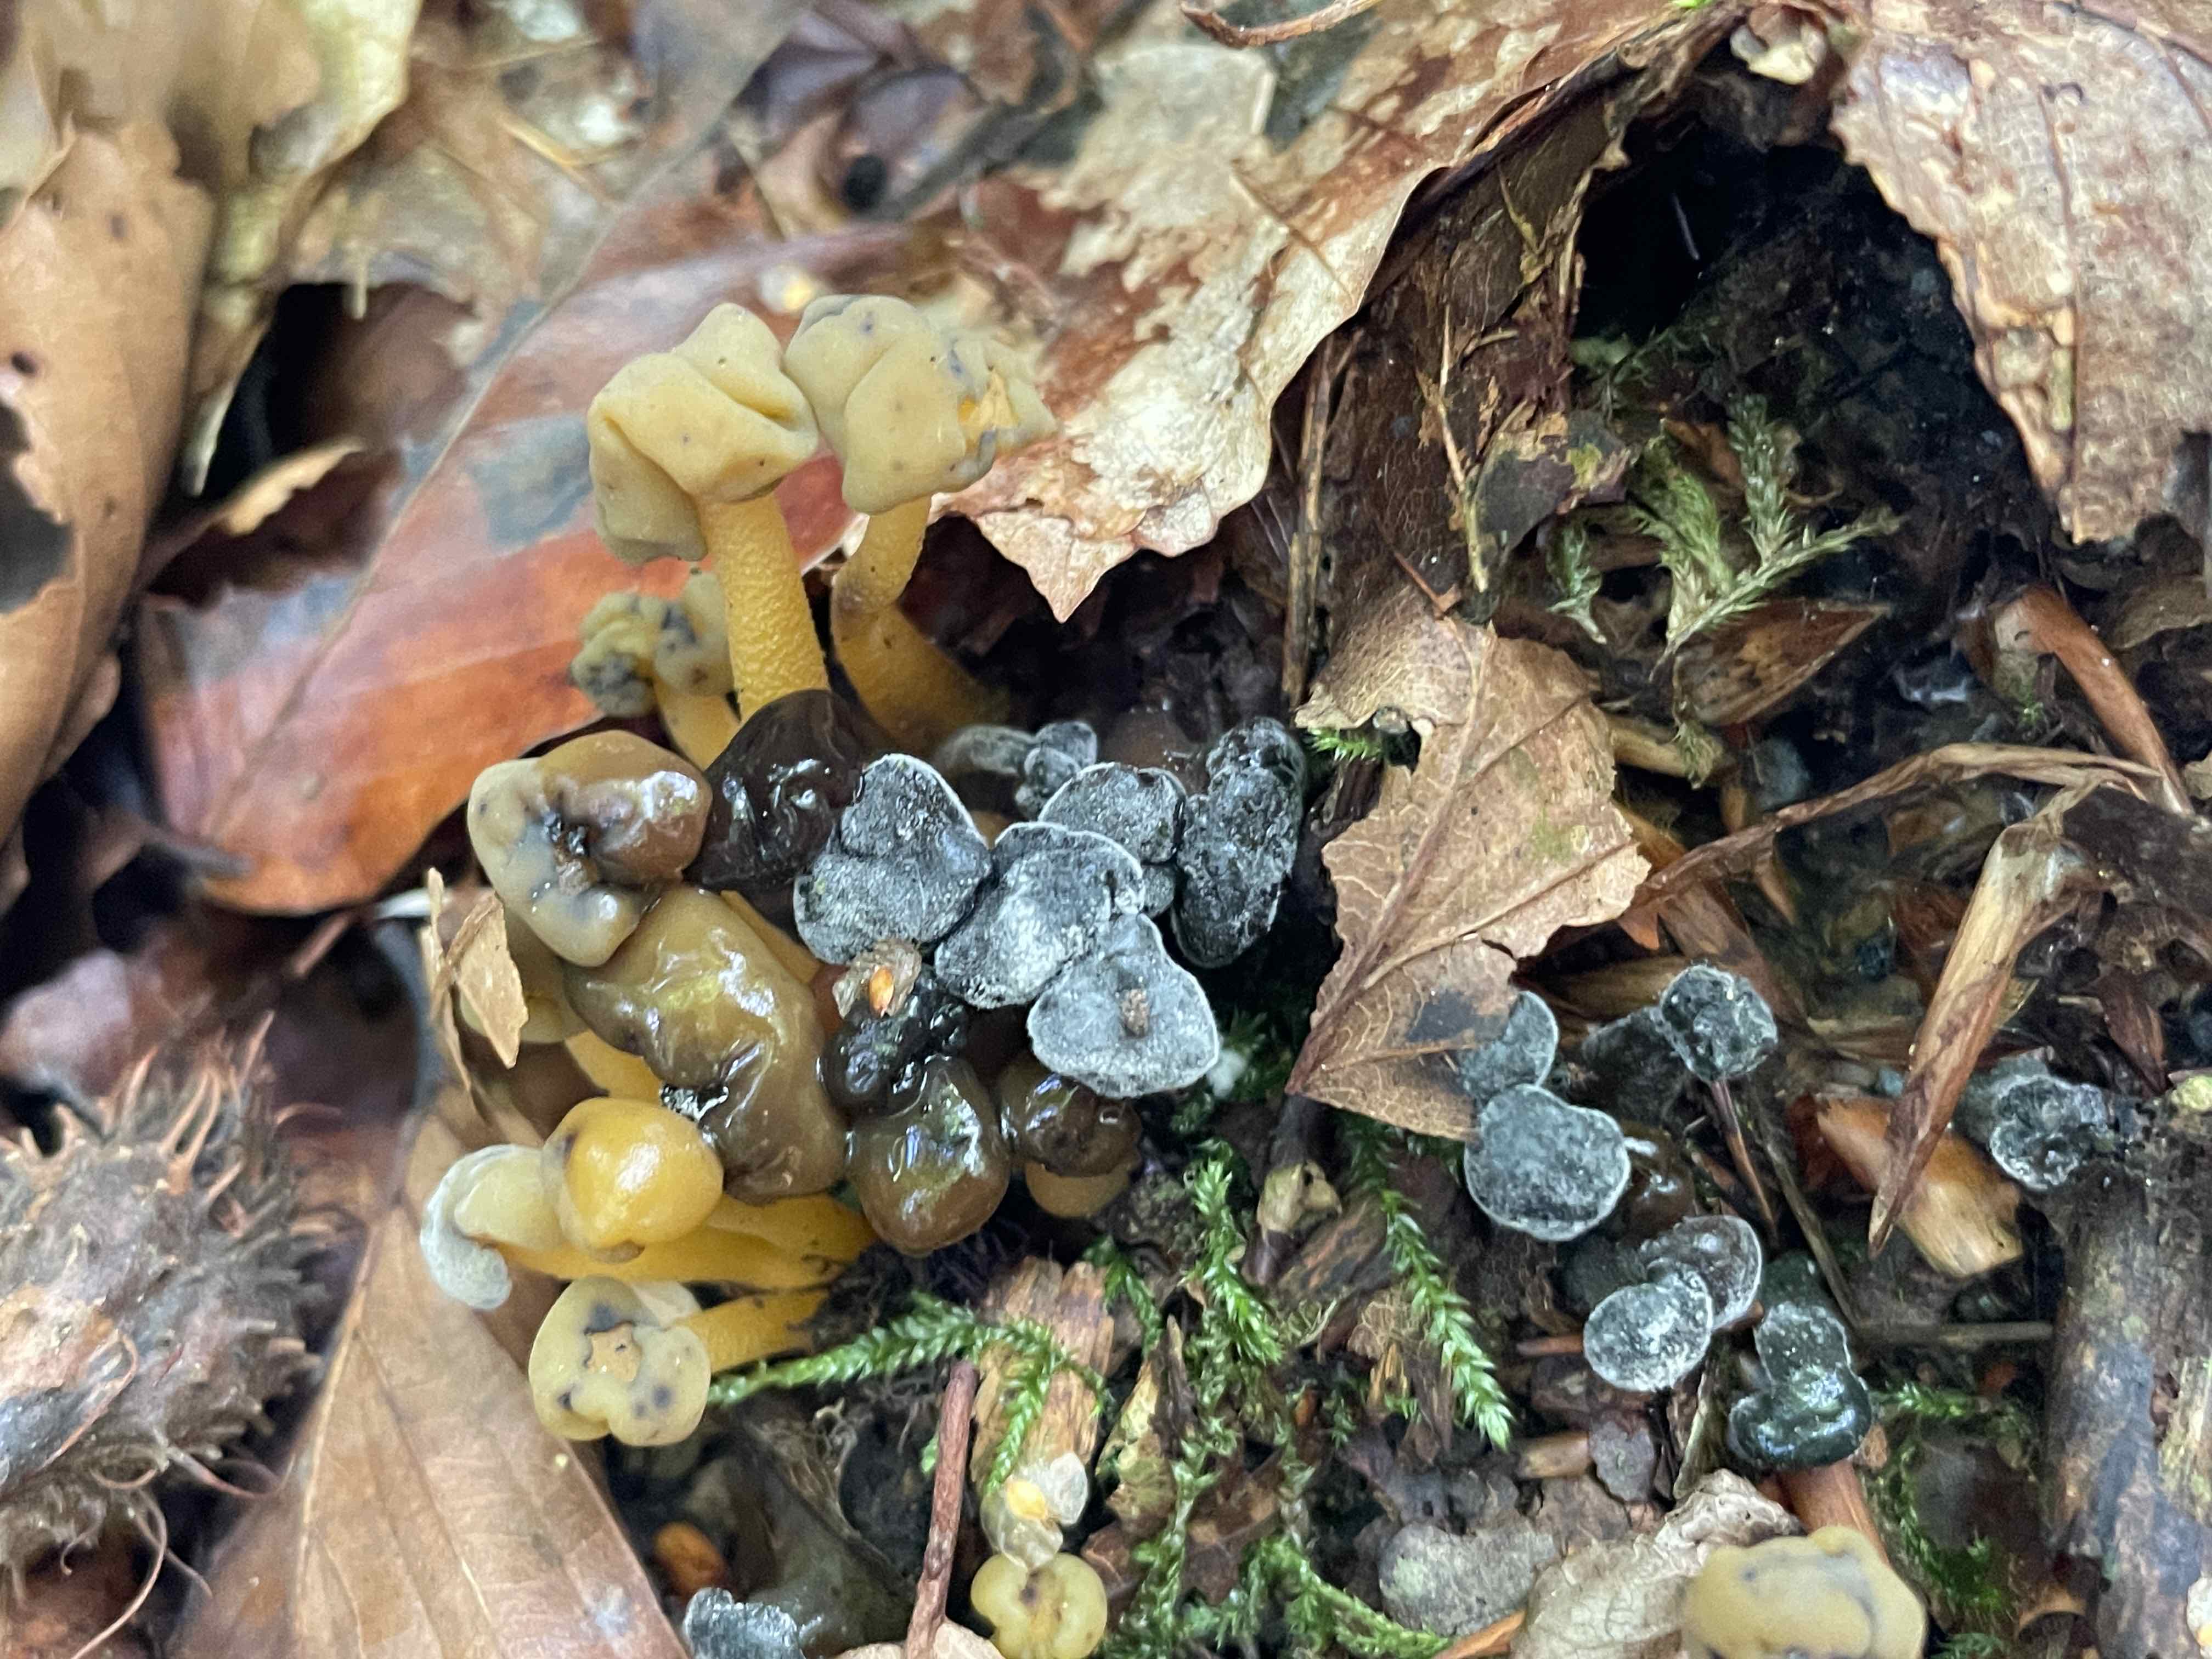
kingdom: Fungi
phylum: Ascomycota
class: Leotiomycetes
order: Leotiales
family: Leotiaceae
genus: Leotia
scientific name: Leotia lubrica
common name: ravsvamp
